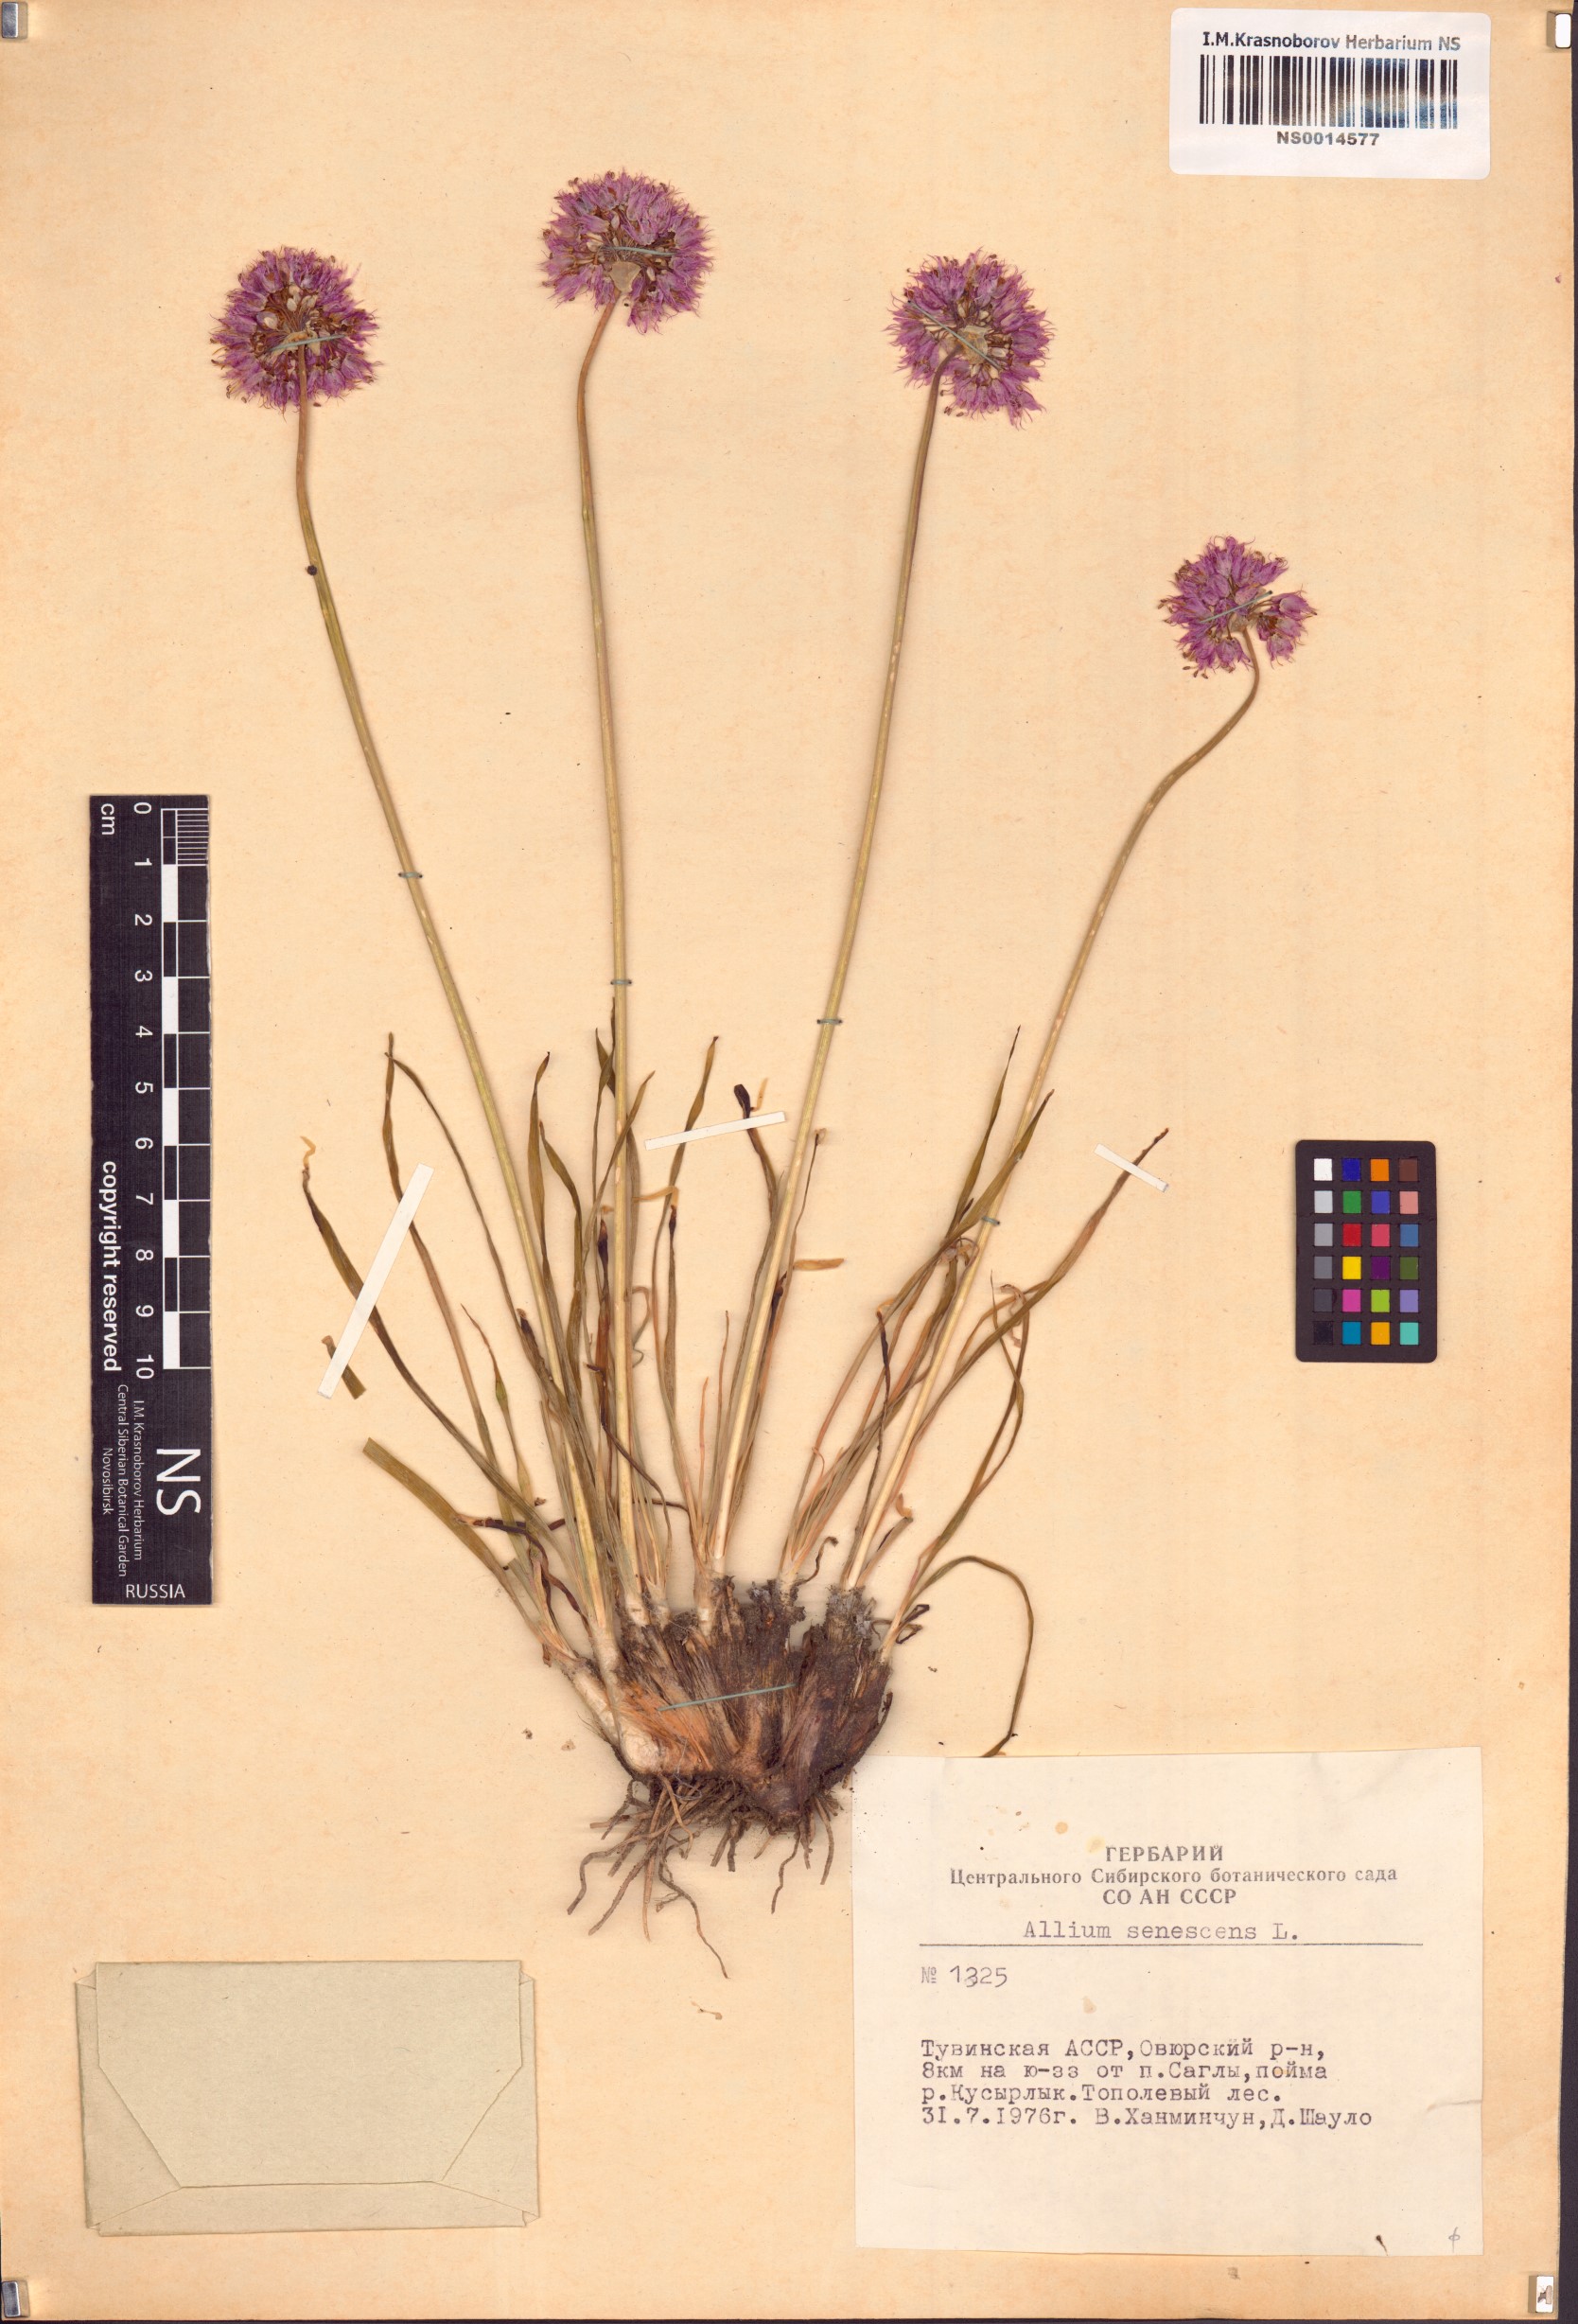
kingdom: Plantae
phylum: Tracheophyta
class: Liliopsida
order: Asparagales
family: Amaryllidaceae
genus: Allium
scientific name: Allium senescens
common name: German garlic
